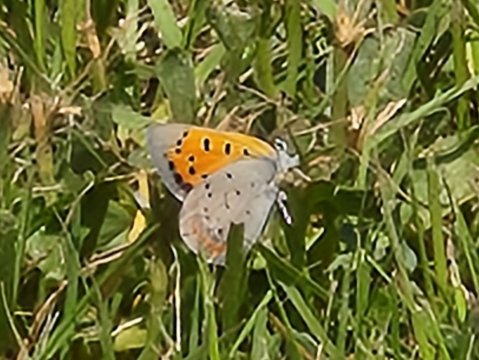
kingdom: Animalia
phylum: Arthropoda
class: Insecta
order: Lepidoptera
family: Lycaenidae
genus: Lycaena
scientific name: Lycaena phlaeas
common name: American Copper
